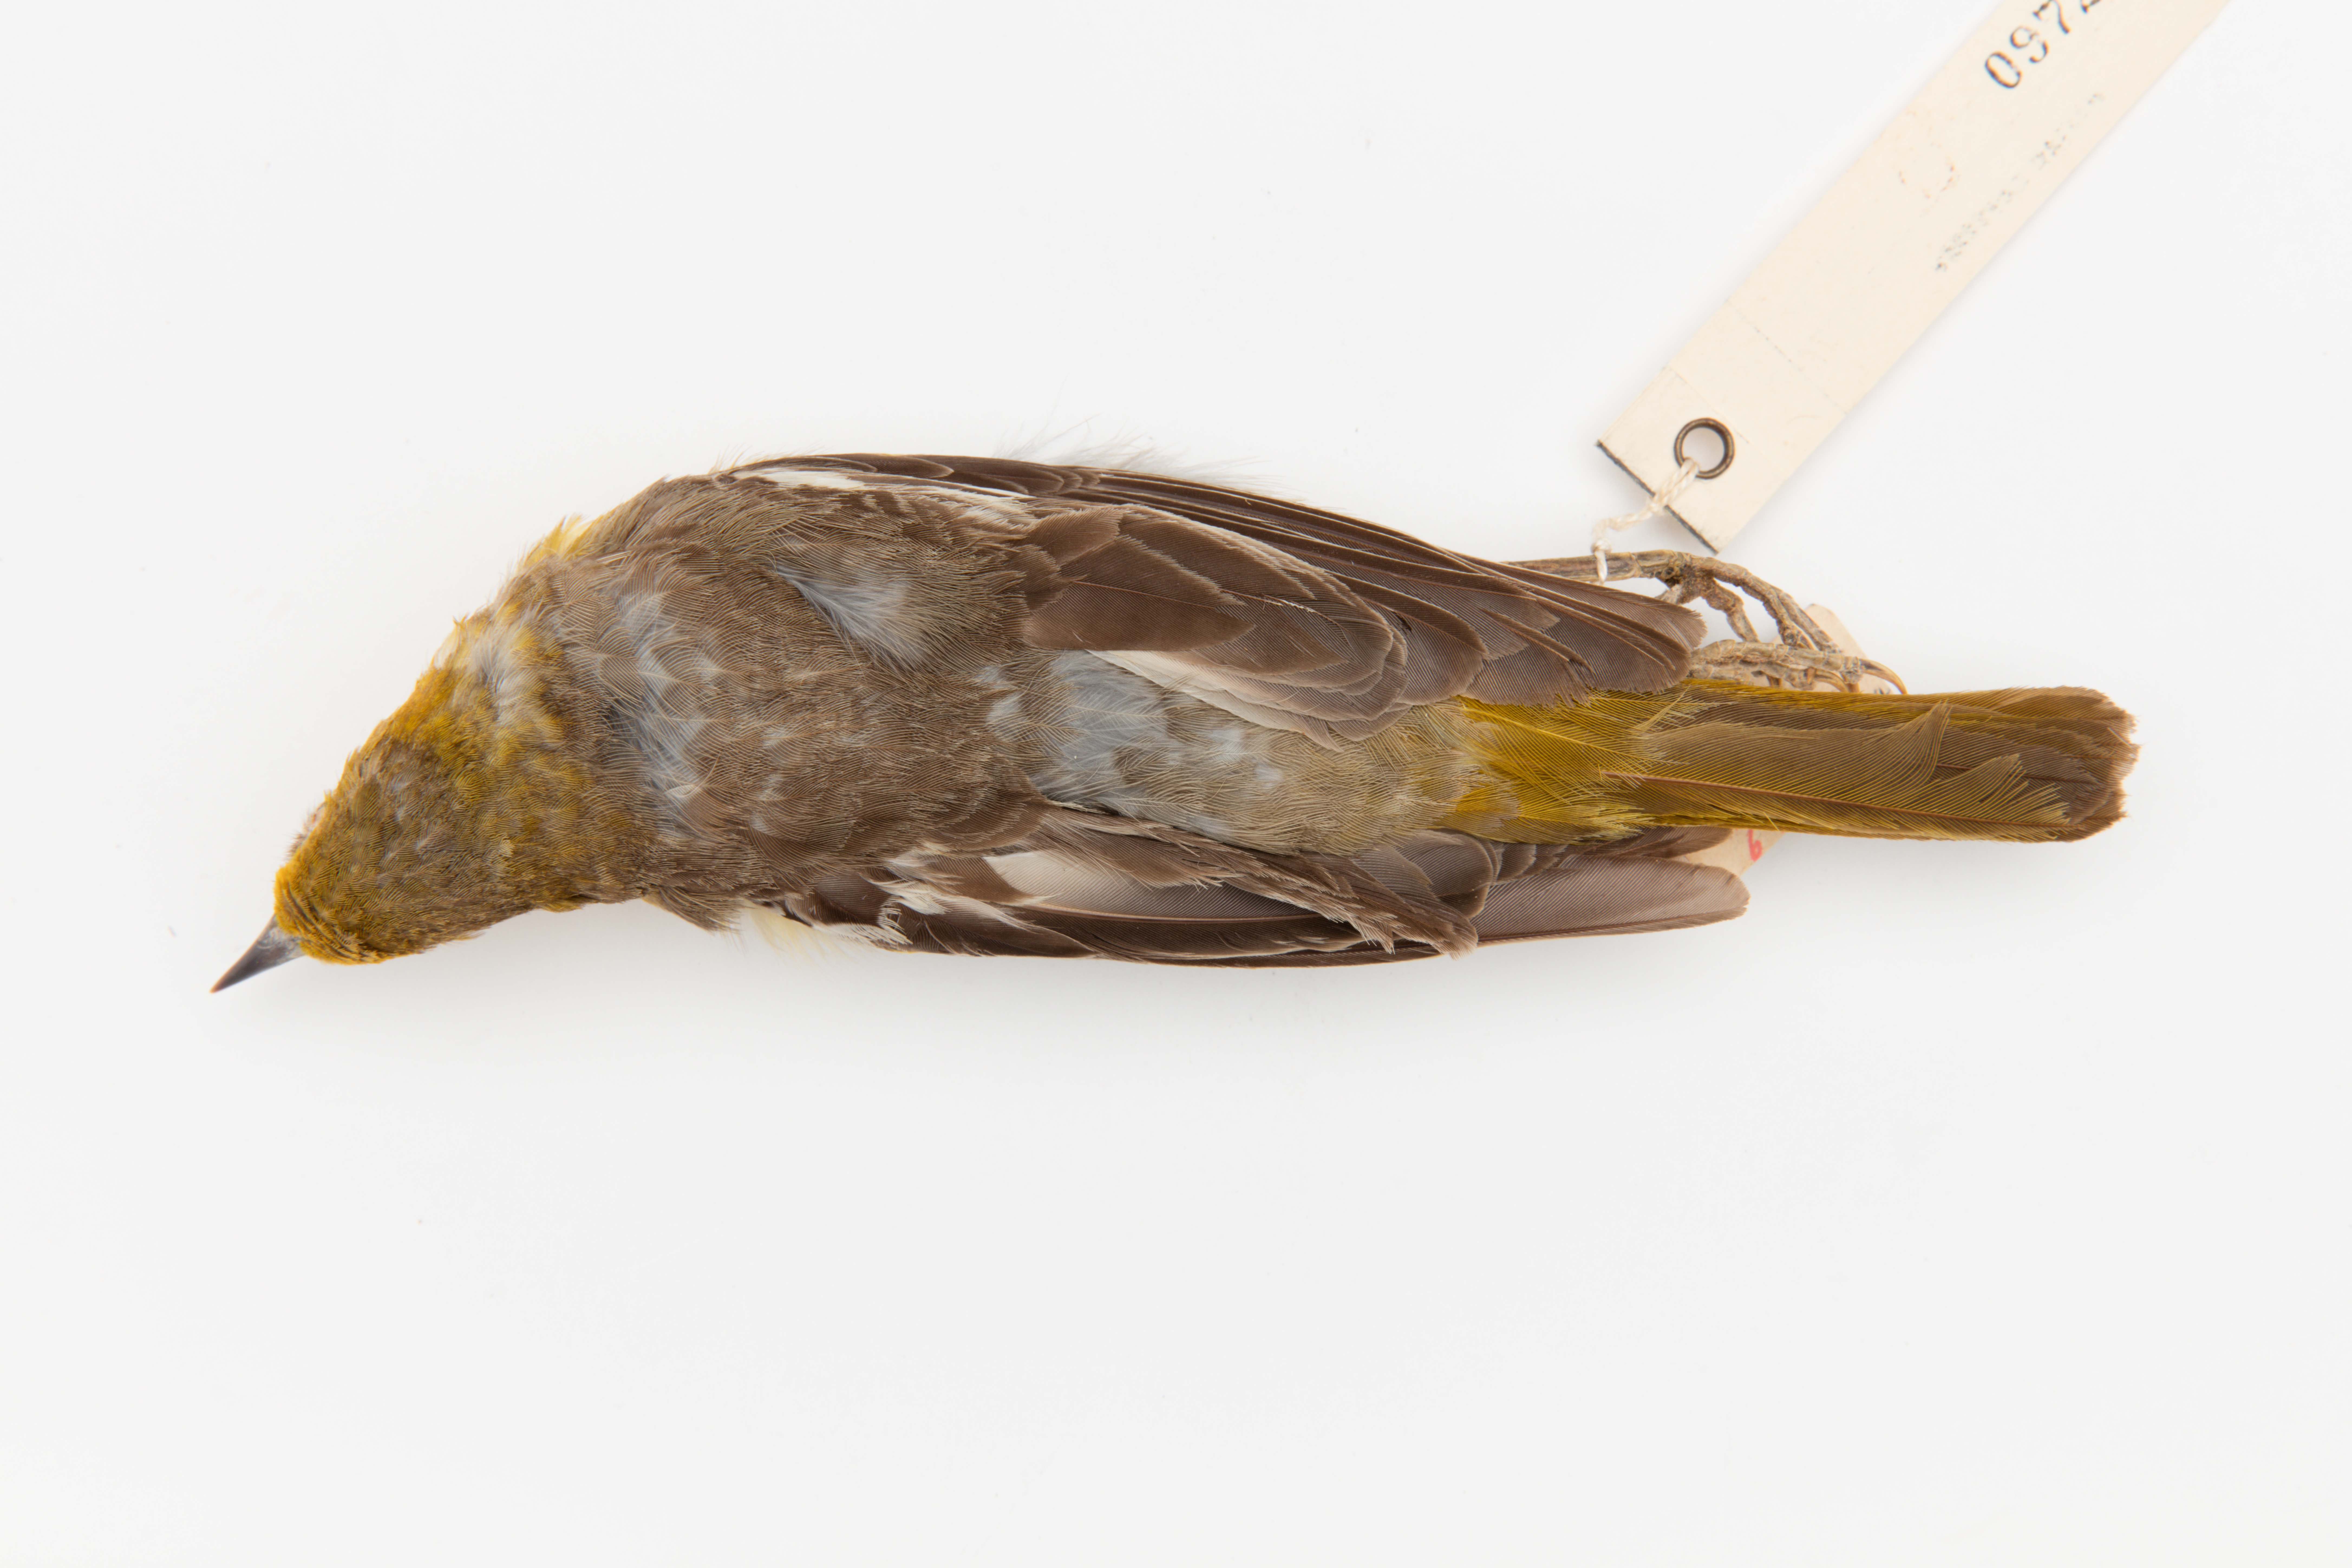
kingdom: Animalia
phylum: Chordata
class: Aves
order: Passeriformes
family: Icteridae
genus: Icterus
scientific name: Icterus galbula
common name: Baltimore oriole
